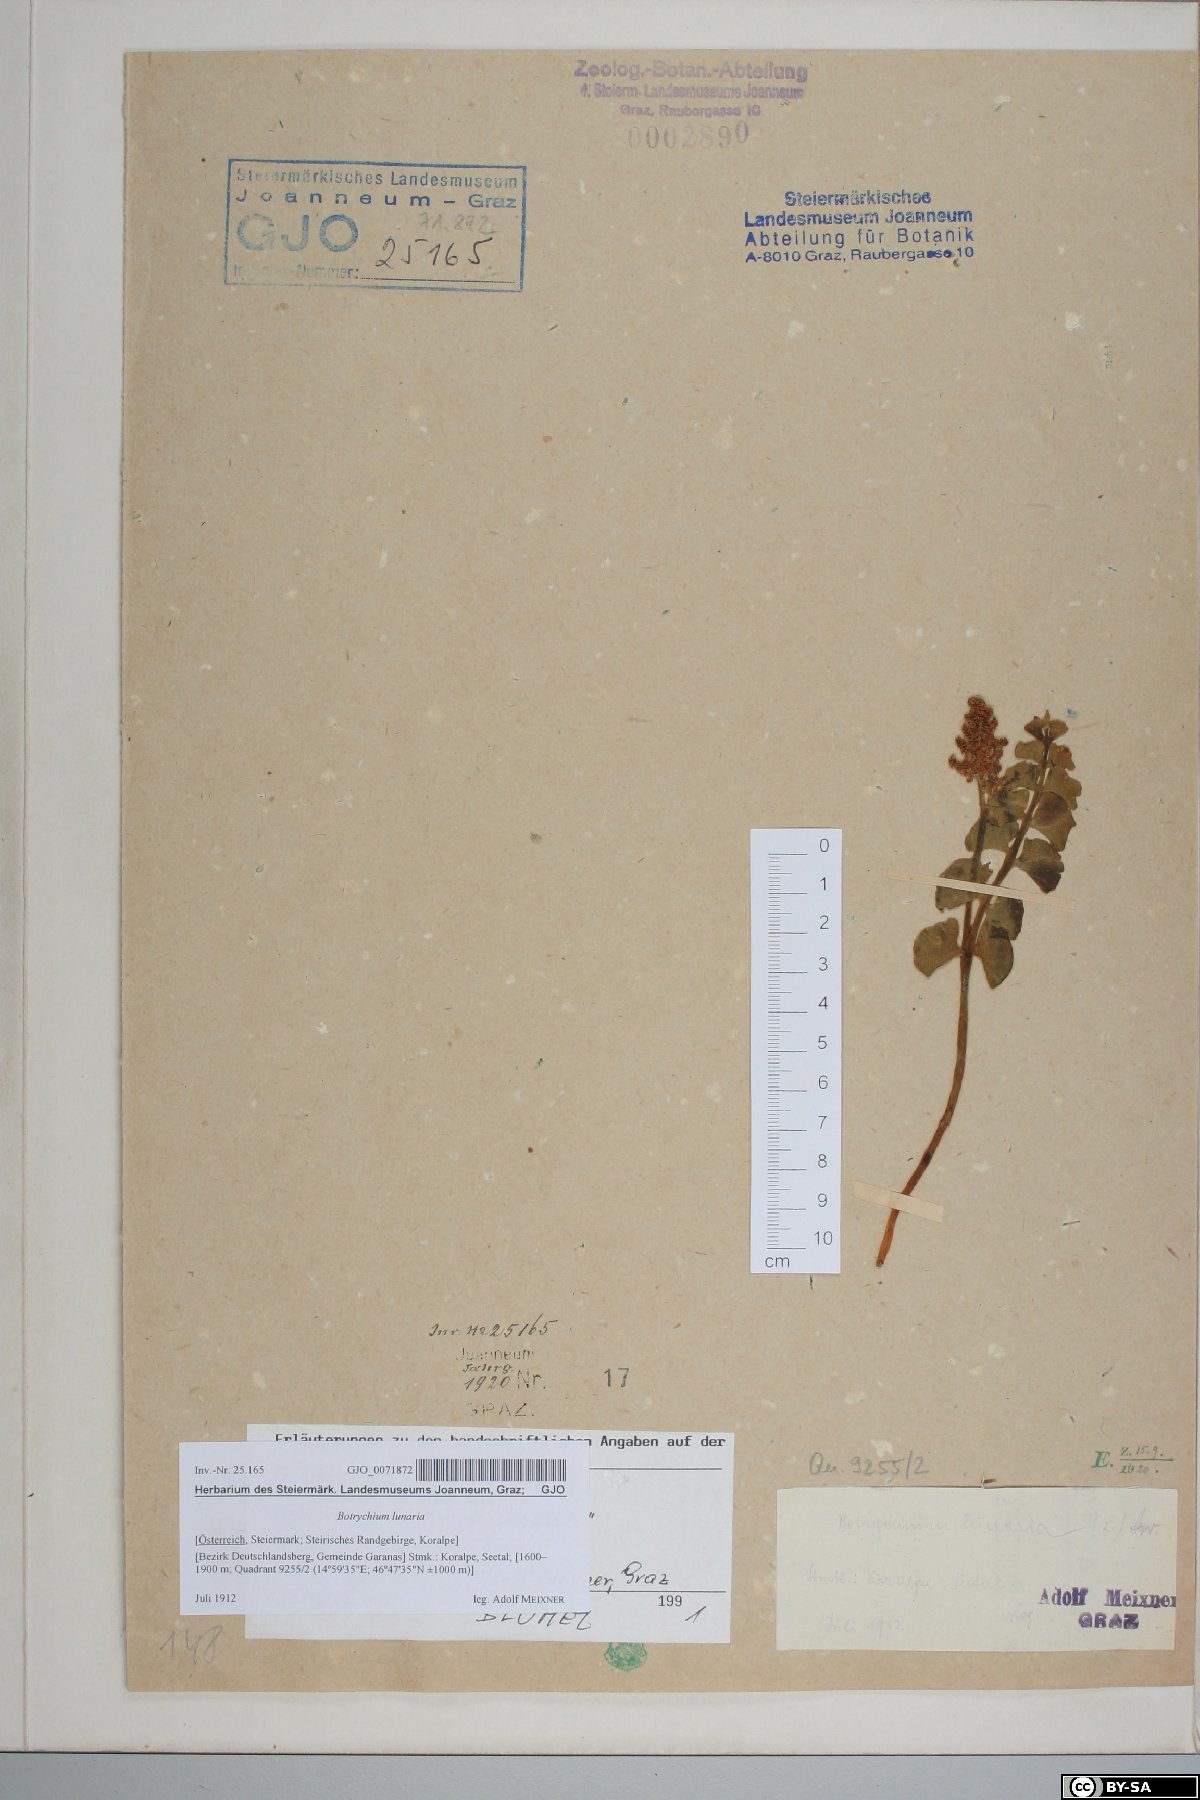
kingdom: Plantae
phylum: Tracheophyta
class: Polypodiopsida
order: Ophioglossales
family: Ophioglossaceae
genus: Botrychium
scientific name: Botrychium lunaria
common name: Moonwort
